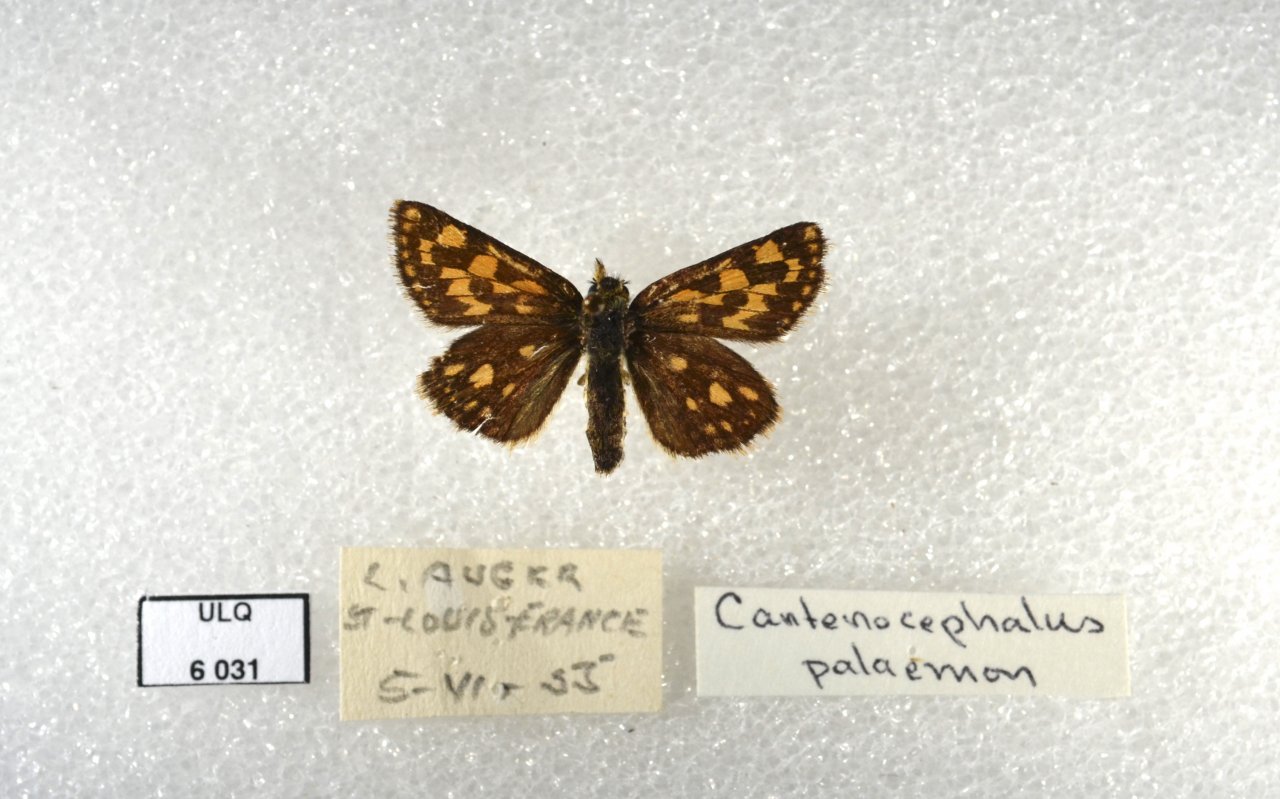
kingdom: Animalia
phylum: Arthropoda
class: Insecta
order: Lepidoptera
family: Hesperiidae
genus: Carterocephalus
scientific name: Carterocephalus palaemon
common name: Chequered Skipper
